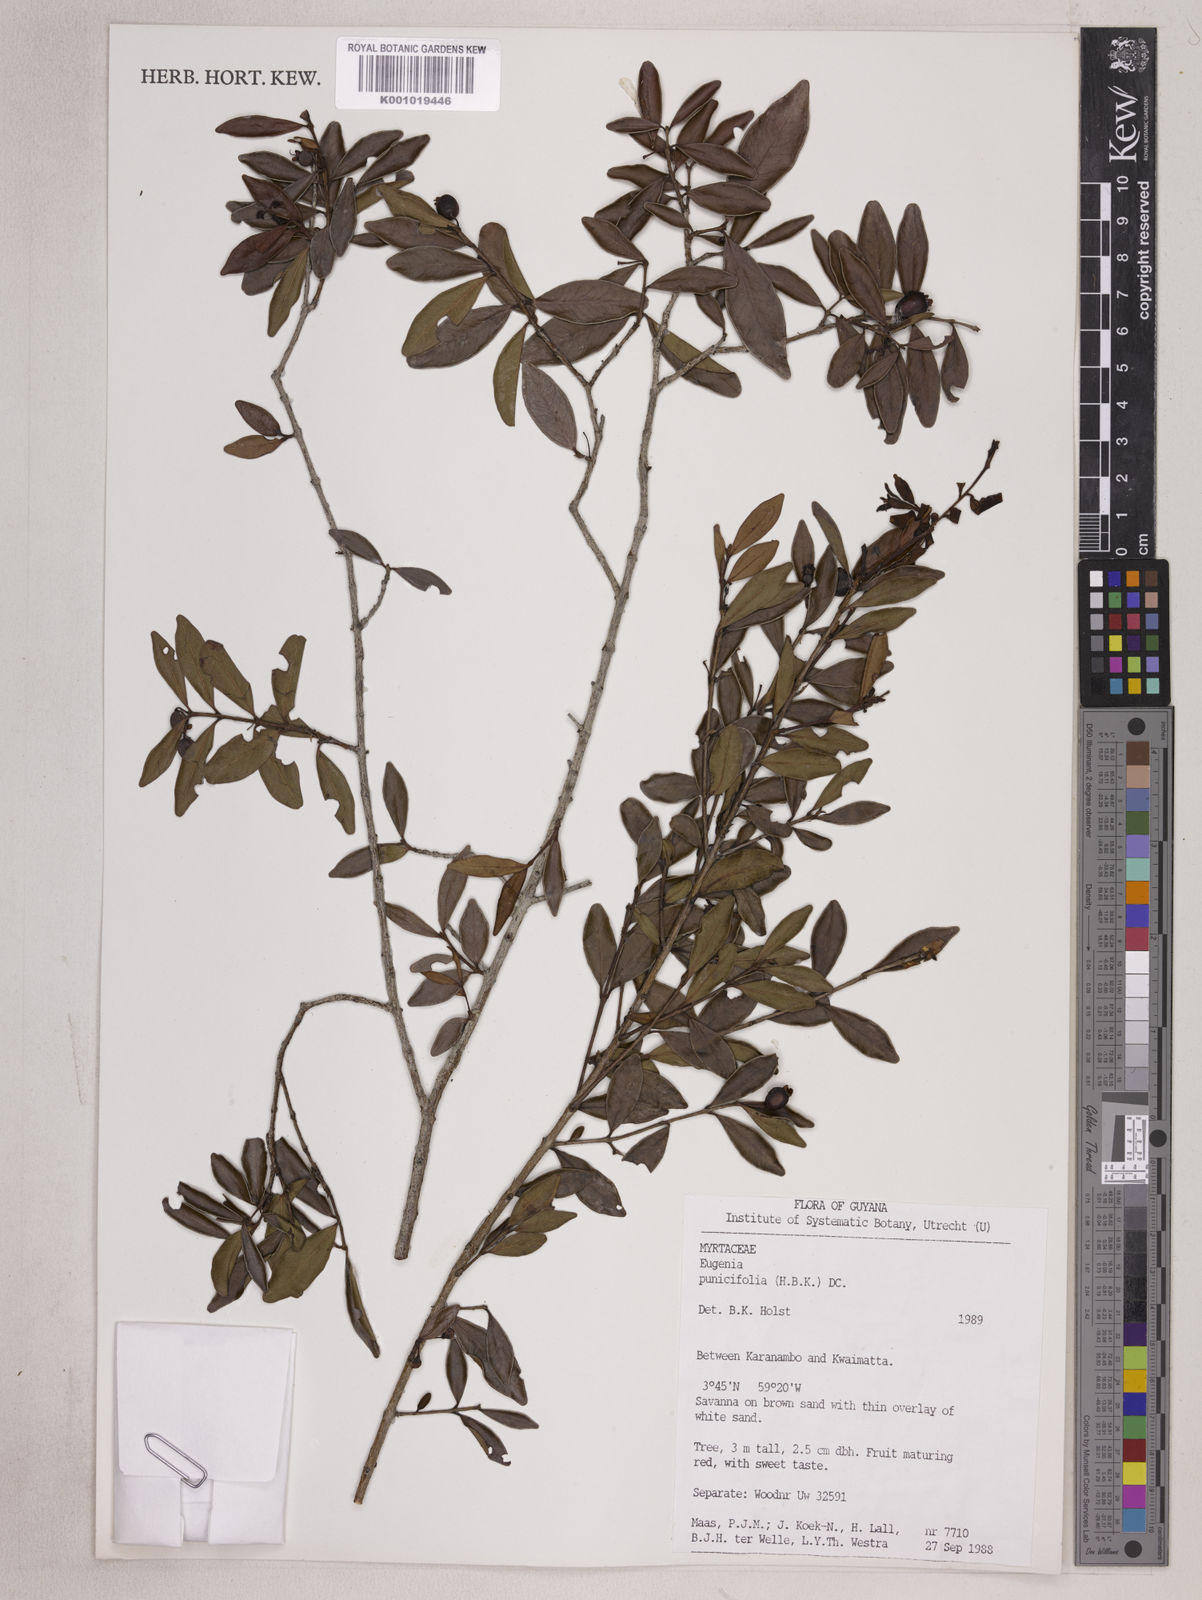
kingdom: Plantae
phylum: Tracheophyta
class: Magnoliopsida
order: Myrtales
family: Myrtaceae
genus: Eugenia
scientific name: Eugenia punicifolia
